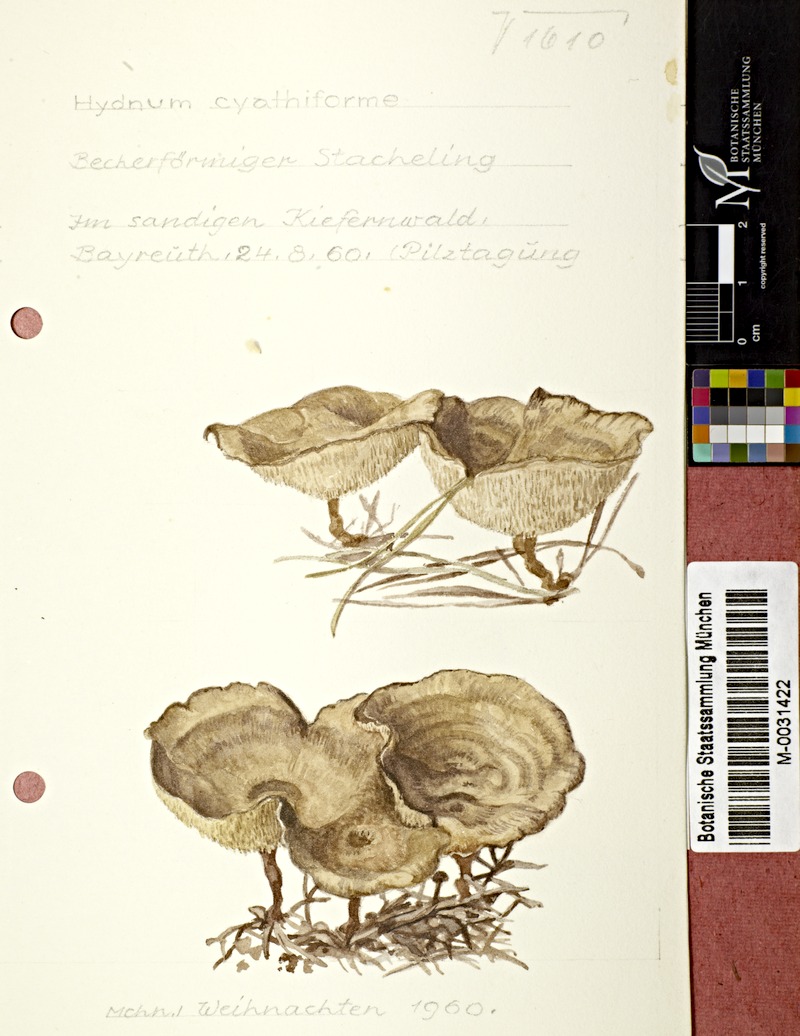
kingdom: Fungi
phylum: Basidiomycota
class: Agaricomycetes
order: Thelephorales
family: Thelephoraceae
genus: Phellodon
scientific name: Phellodon tomentosus
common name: Woolly tooth
